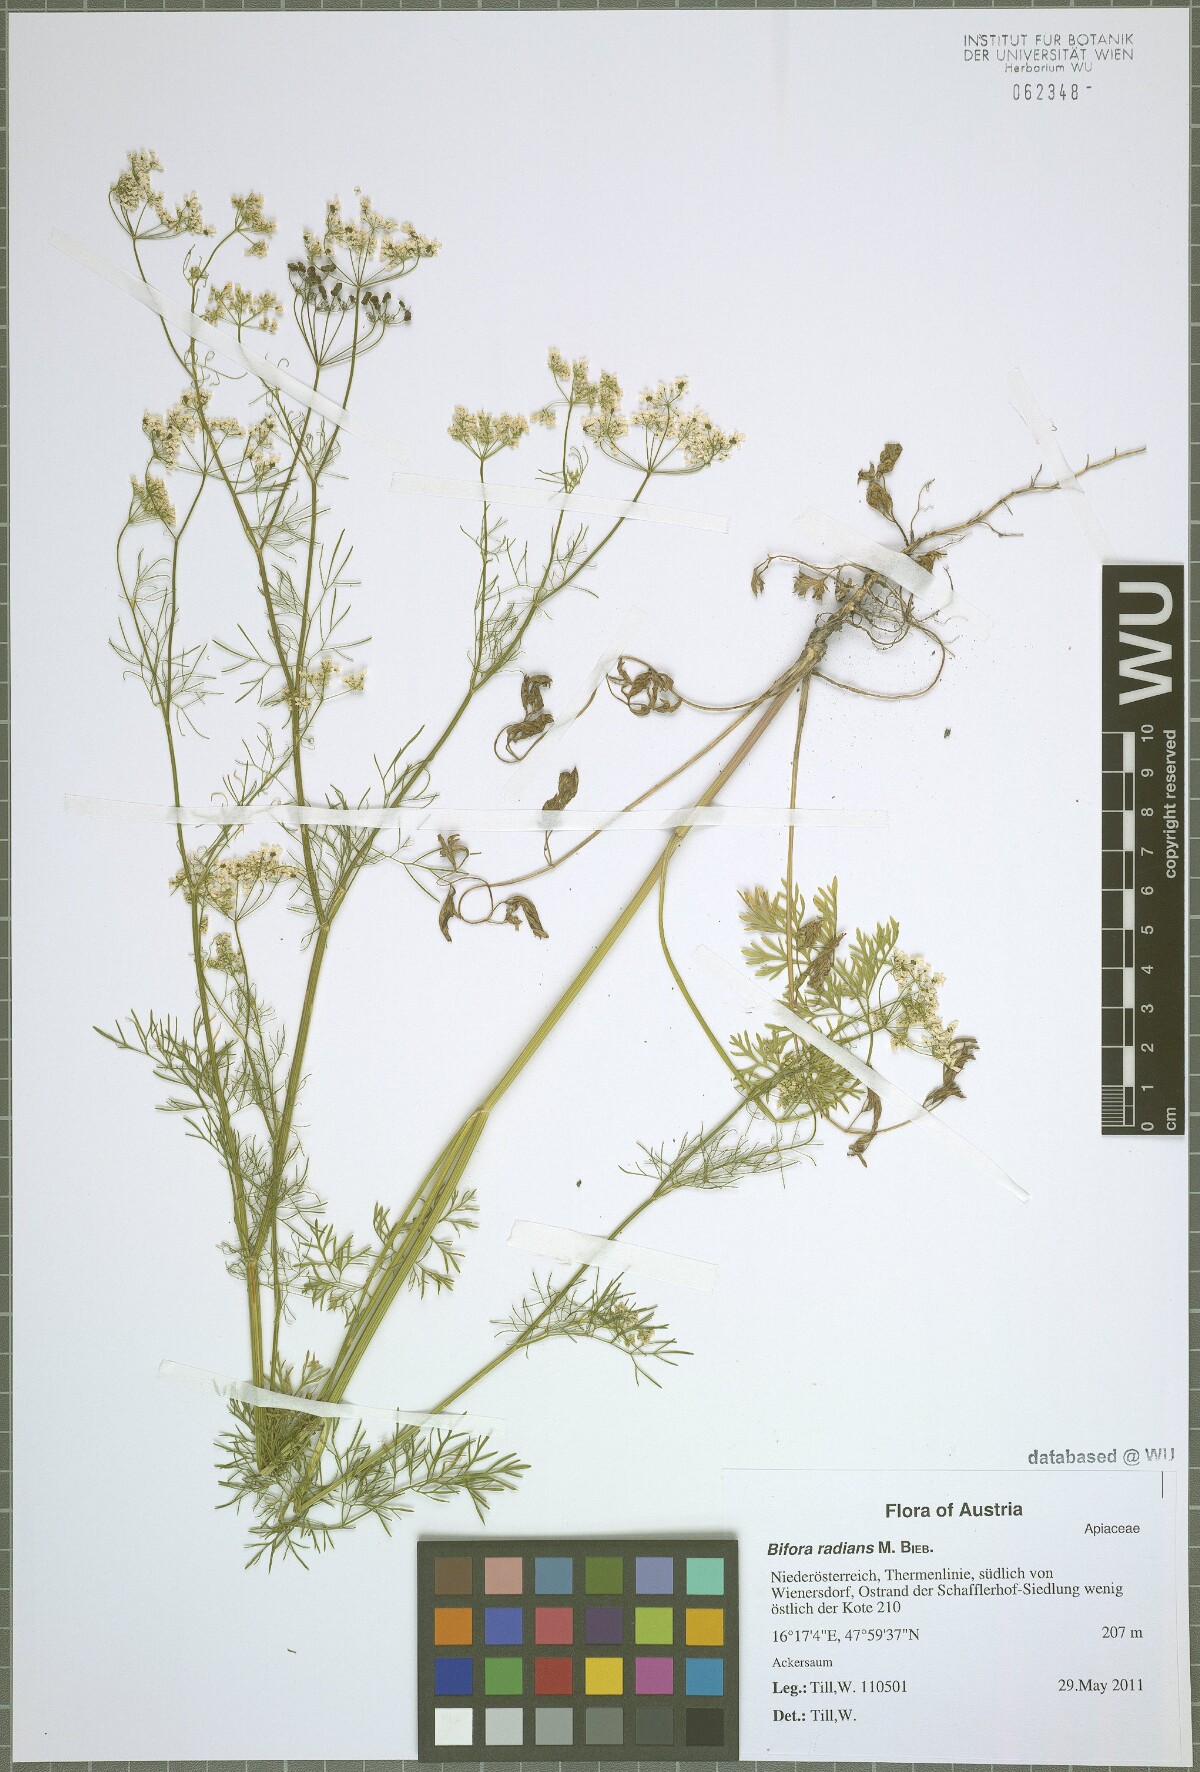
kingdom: Plantae
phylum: Tracheophyta
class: Magnoliopsida
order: Apiales
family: Apiaceae
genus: Bifora
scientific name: Bifora radians
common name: Wild bishop
